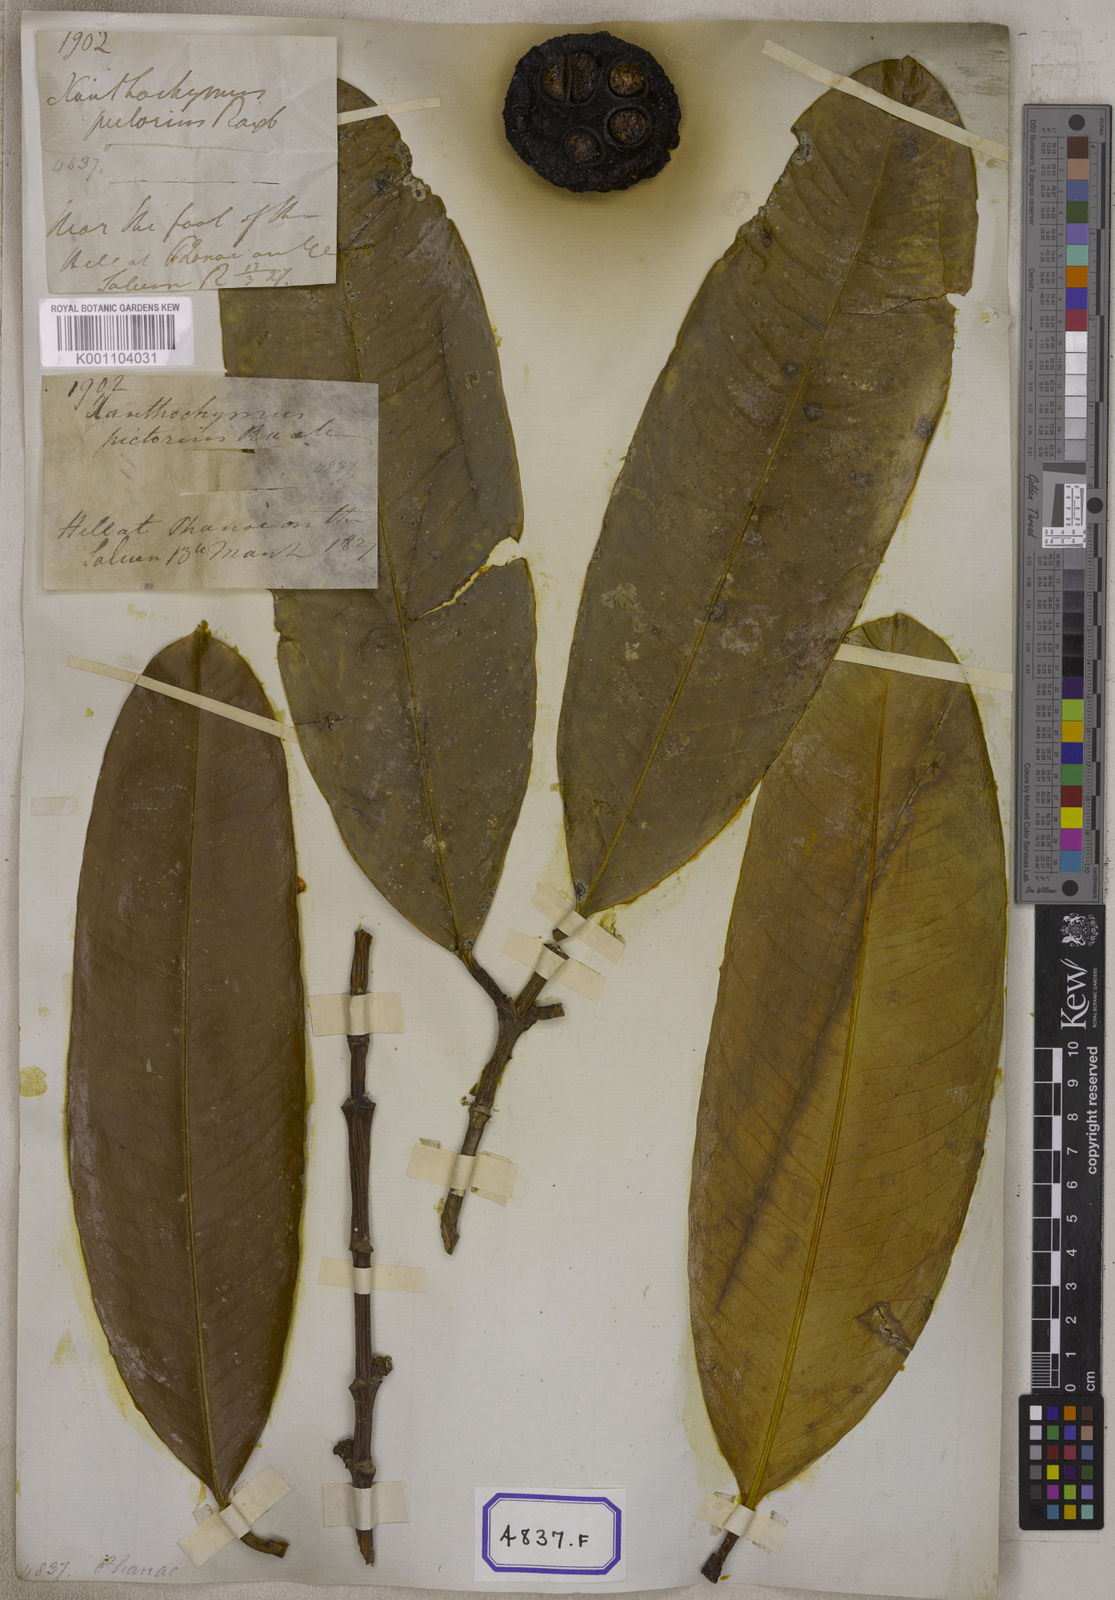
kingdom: Plantae
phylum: Tracheophyta
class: Magnoliopsida
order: Malpighiales
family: Clusiaceae
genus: Garcinia
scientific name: Garcinia xanthochymus
